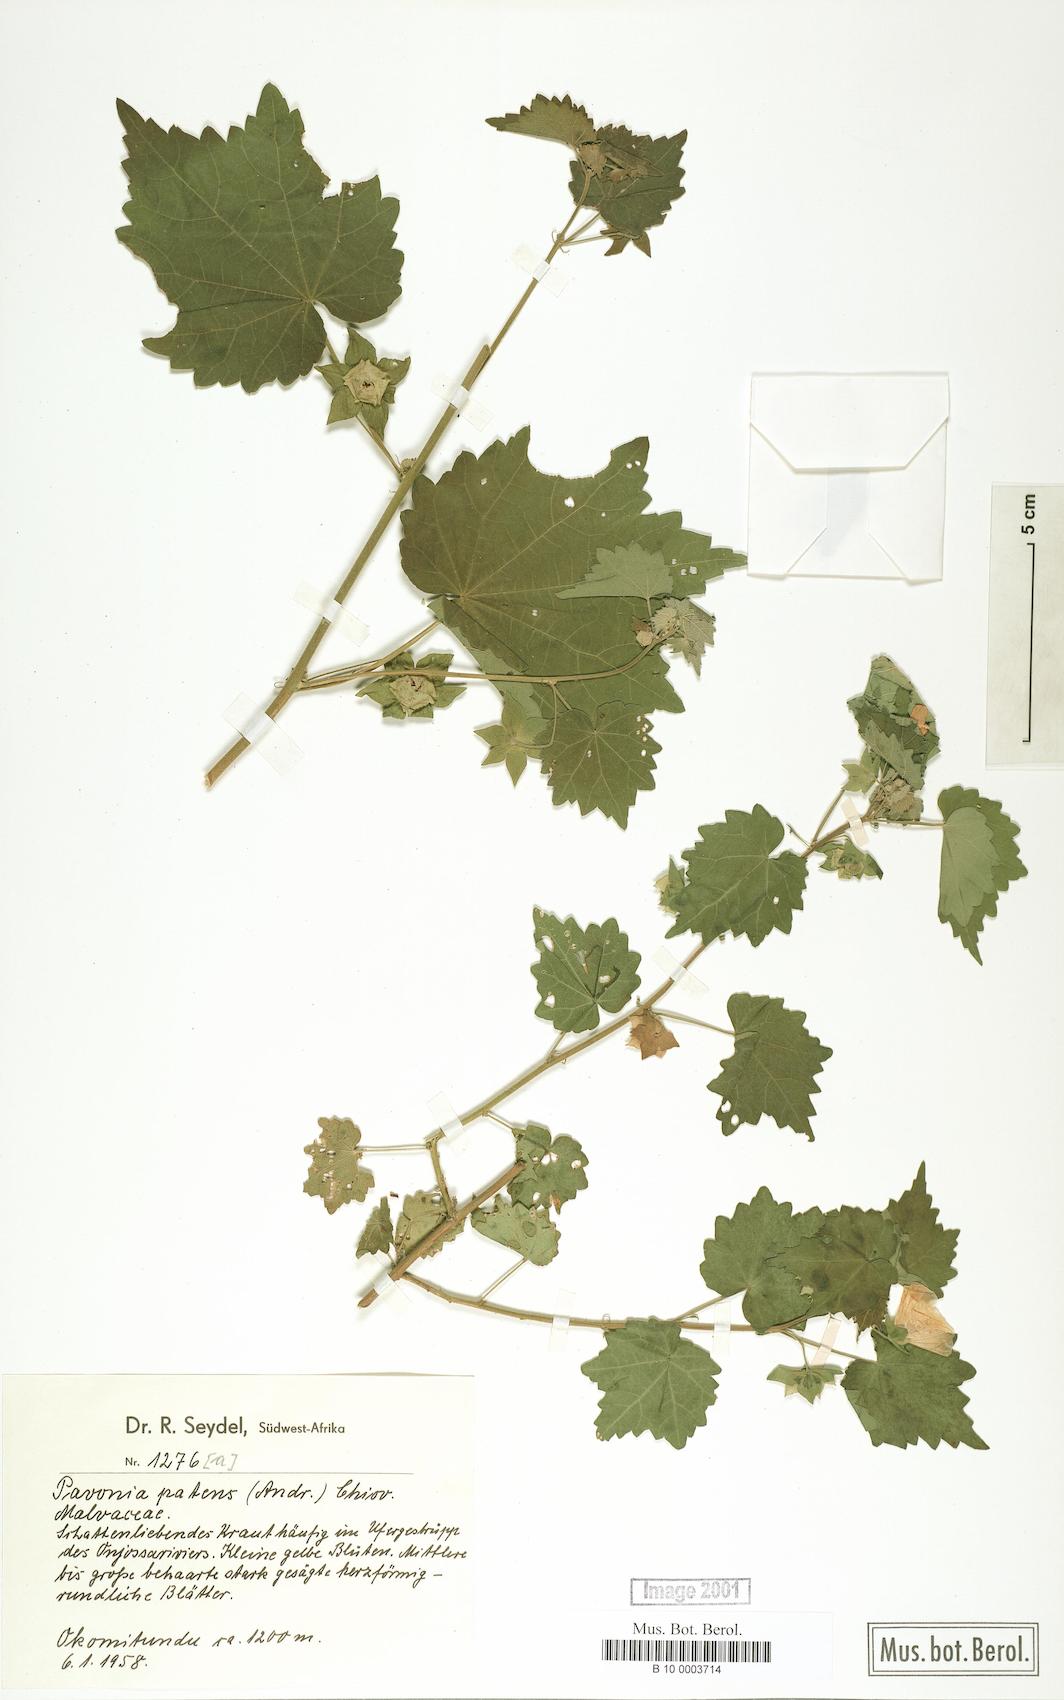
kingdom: Plantae
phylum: Tracheophyta
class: Magnoliopsida
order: Malvales
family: Malvaceae
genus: Abutilon
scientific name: Abutilon mauritianum
